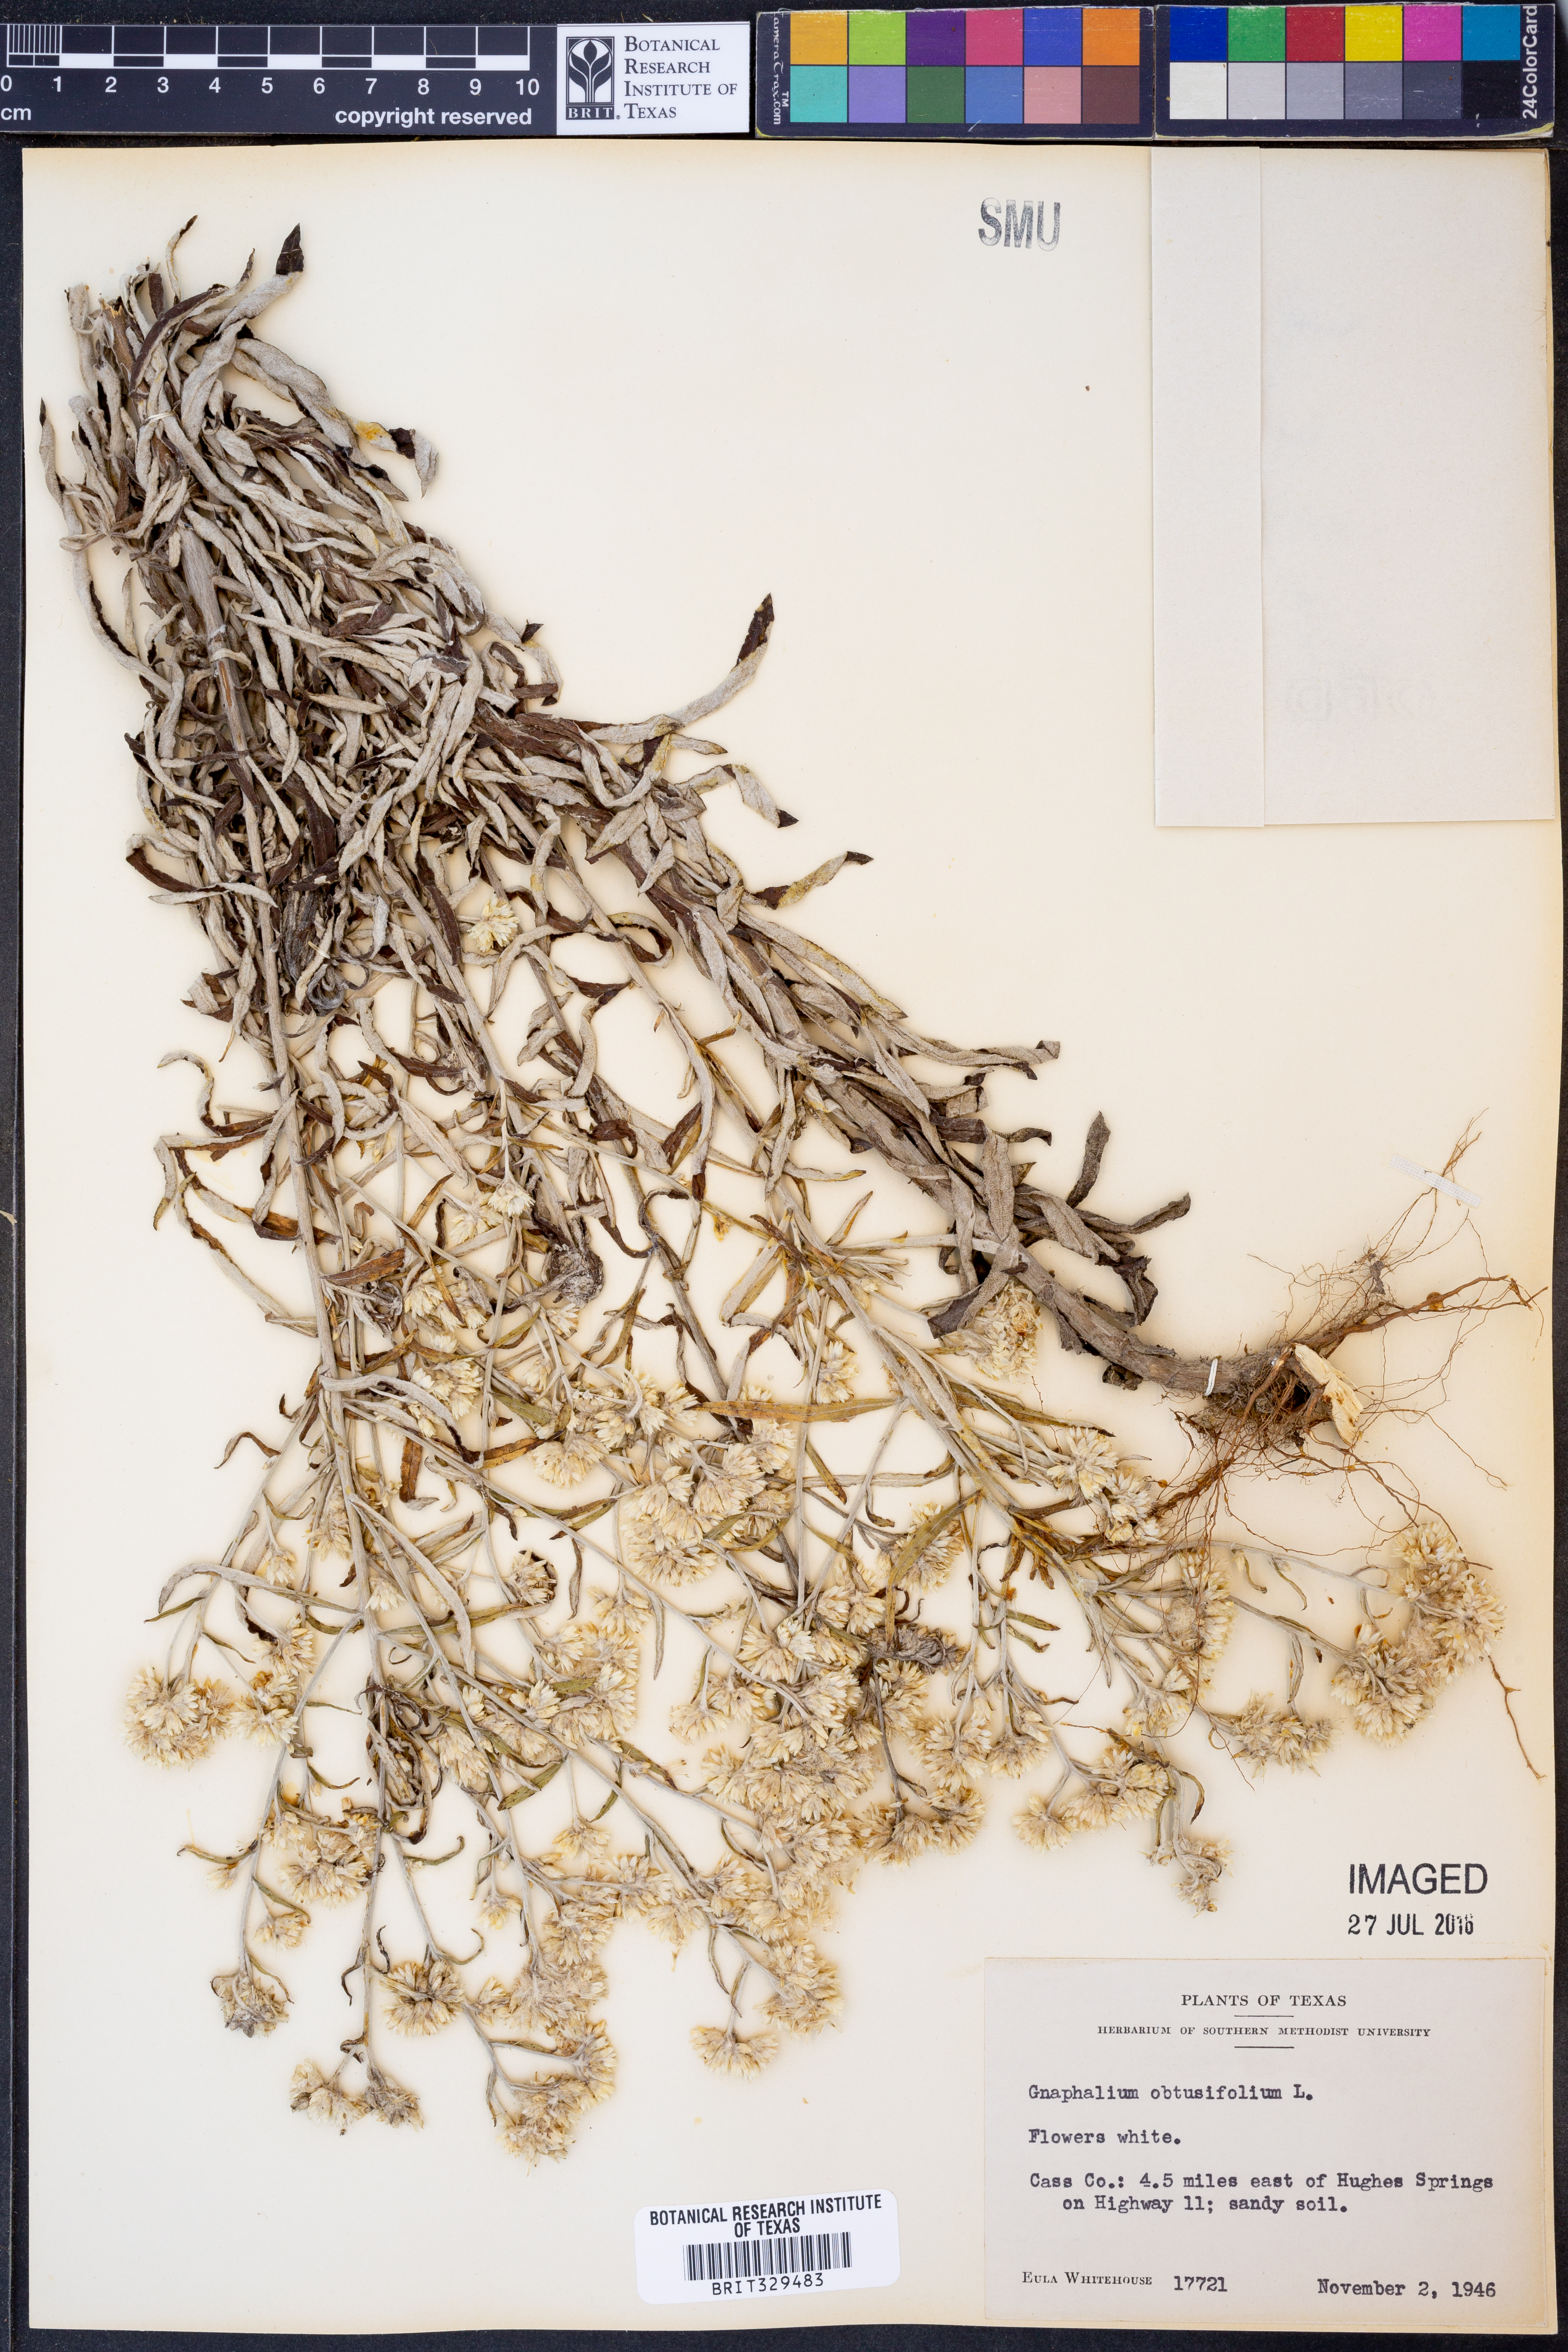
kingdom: Plantae
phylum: Tracheophyta
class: Magnoliopsida
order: Asterales
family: Asteraceae
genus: Pseudognaphalium
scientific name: Pseudognaphalium obtusifolium
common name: Eastern rabbit-tobacco
